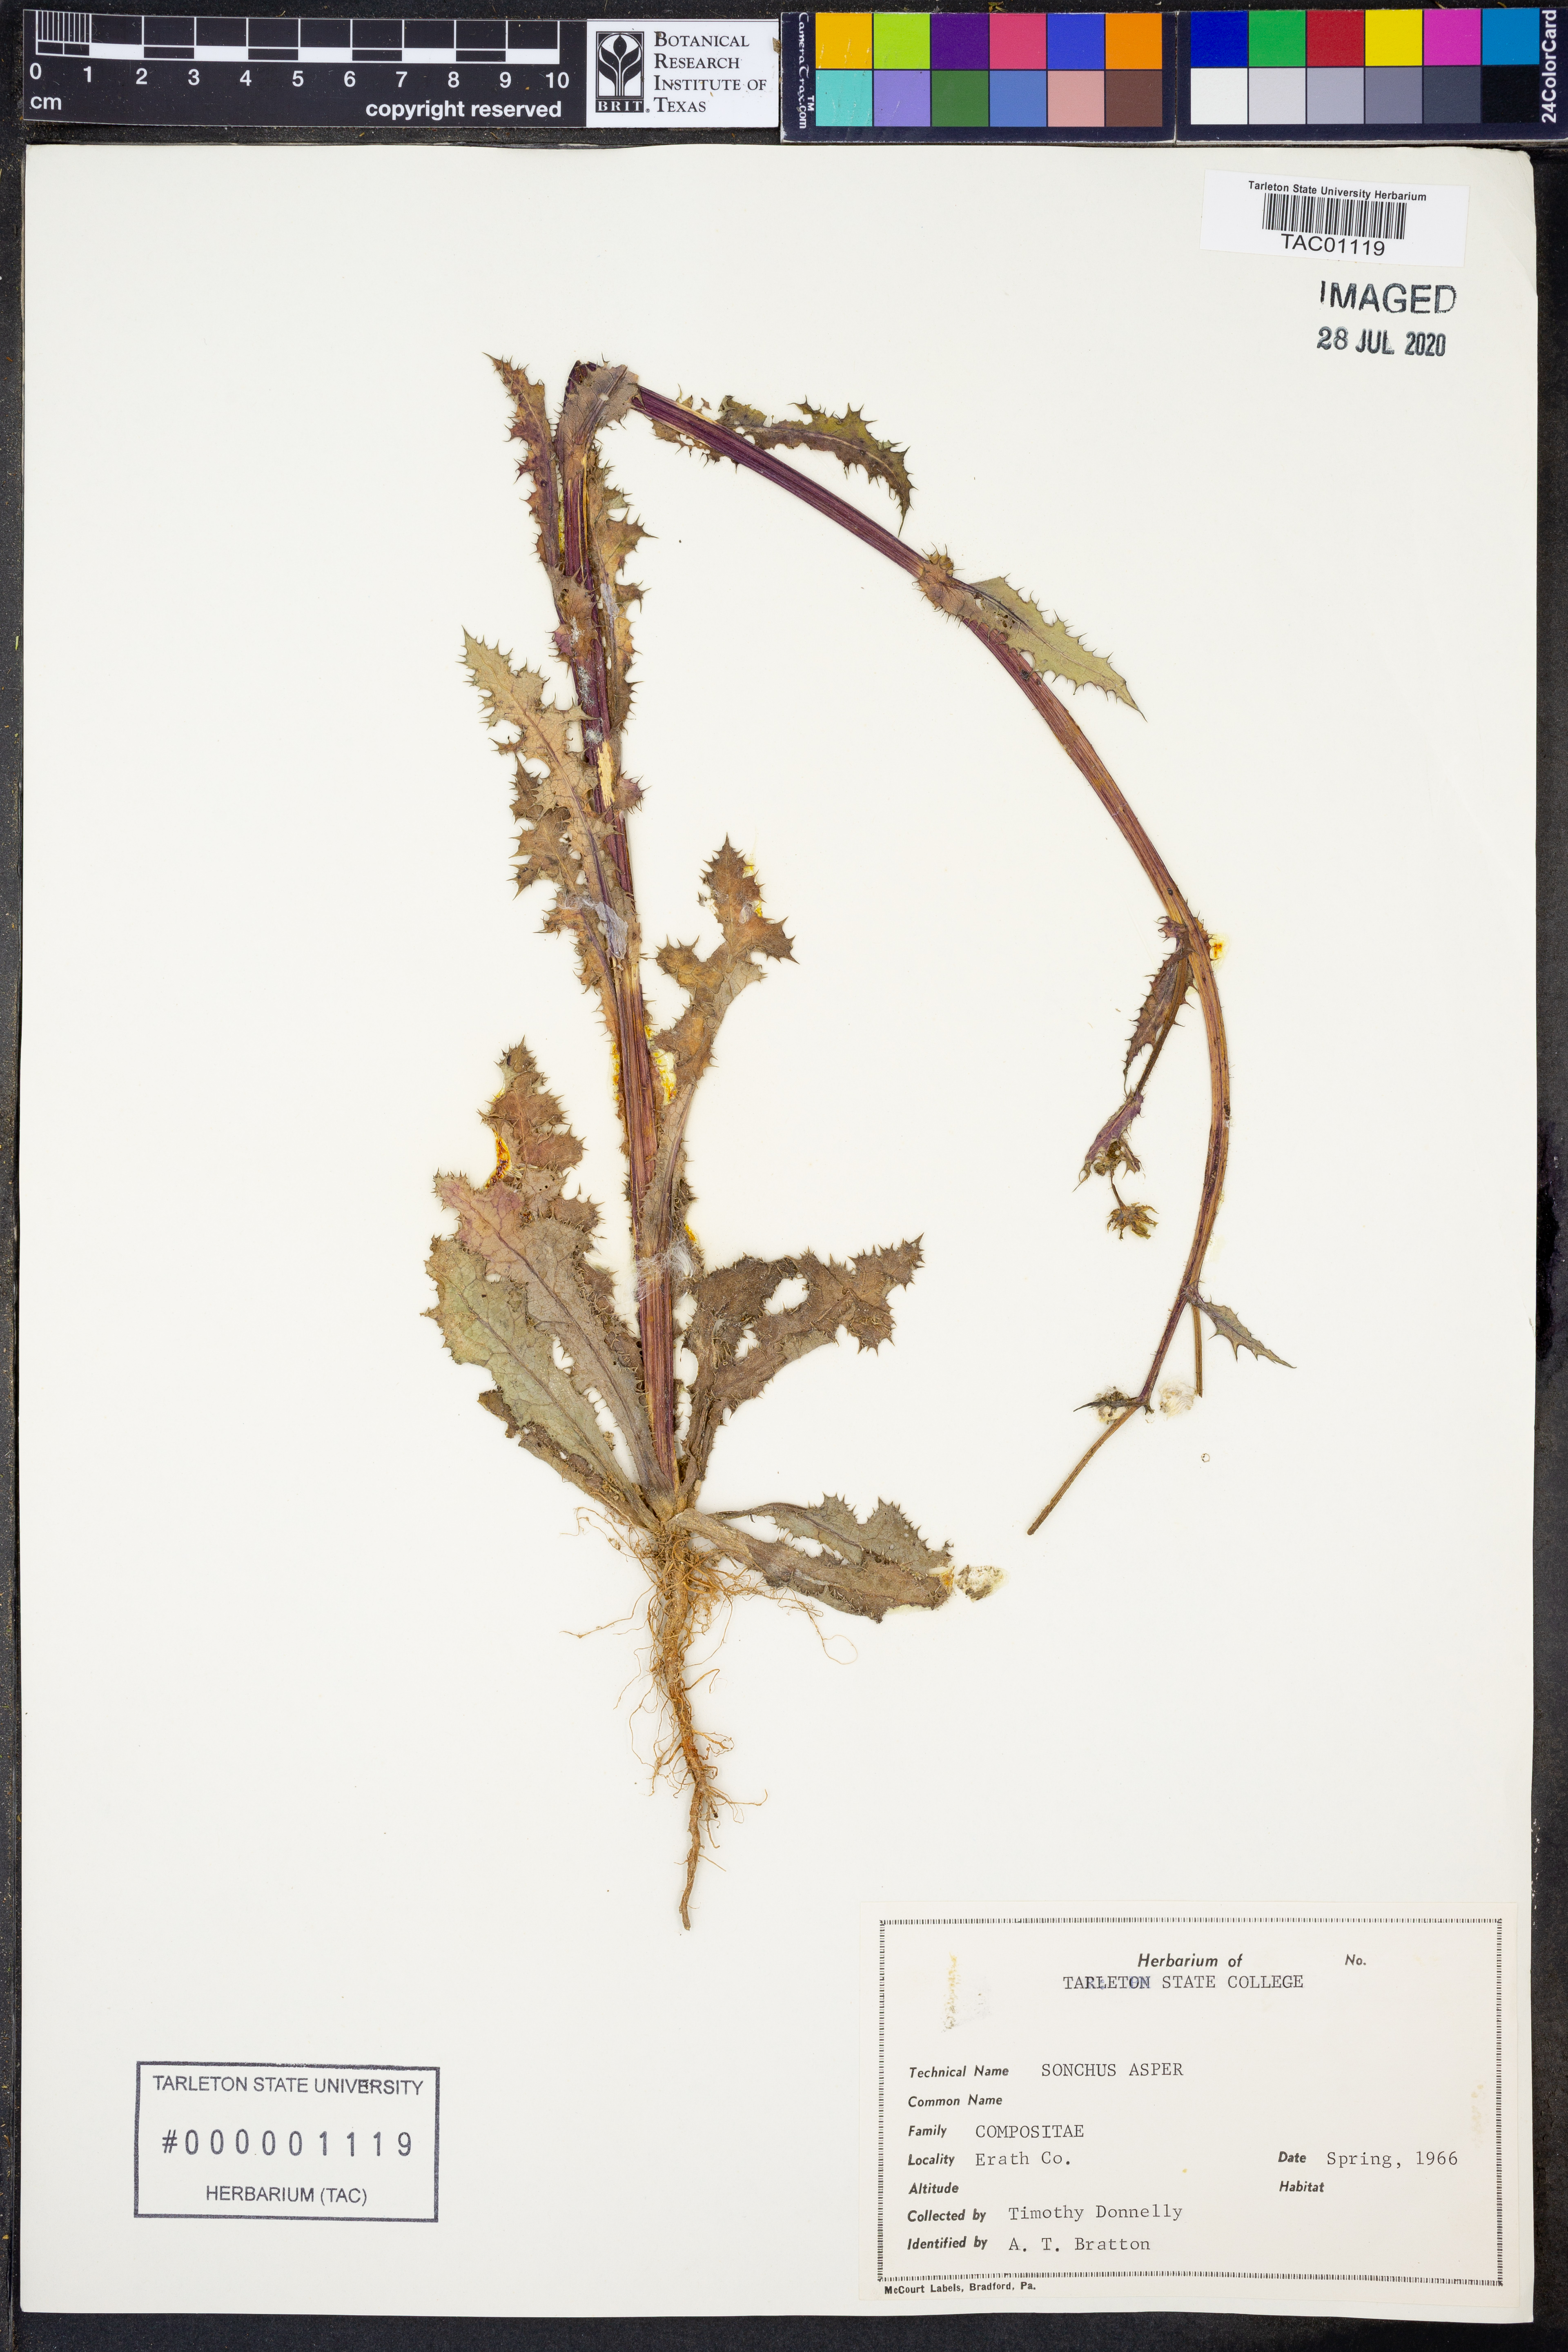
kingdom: Plantae
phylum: Tracheophyta
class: Magnoliopsida
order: Asterales
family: Asteraceae
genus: Sonchus
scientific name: Sonchus asper
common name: Prickly sow-thistle
